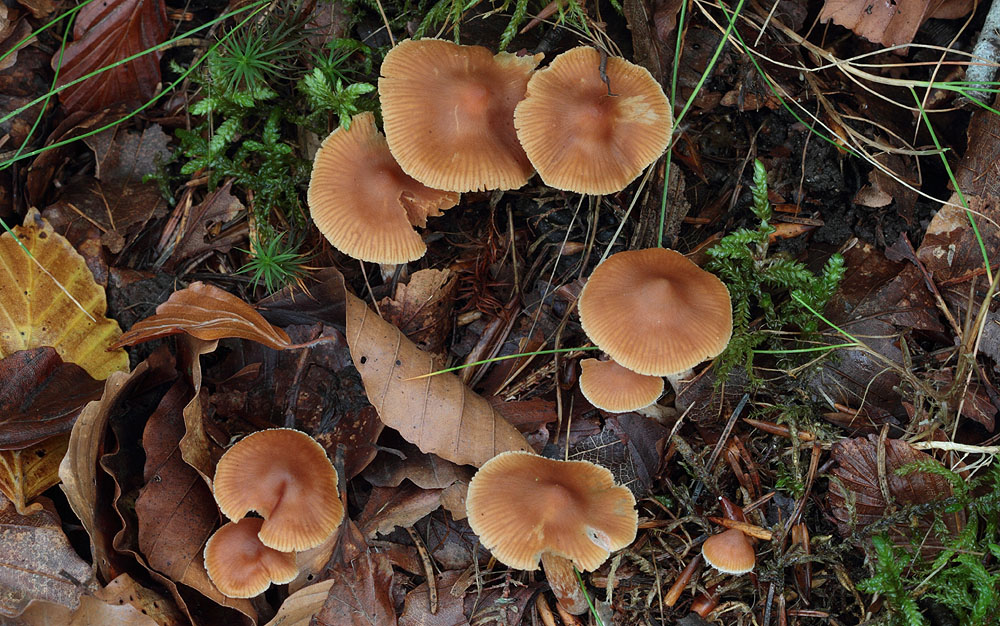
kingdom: Fungi
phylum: Basidiomycota
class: Agaricomycetes
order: Agaricales
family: Cortinariaceae
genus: Cortinarius
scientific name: Cortinarius
